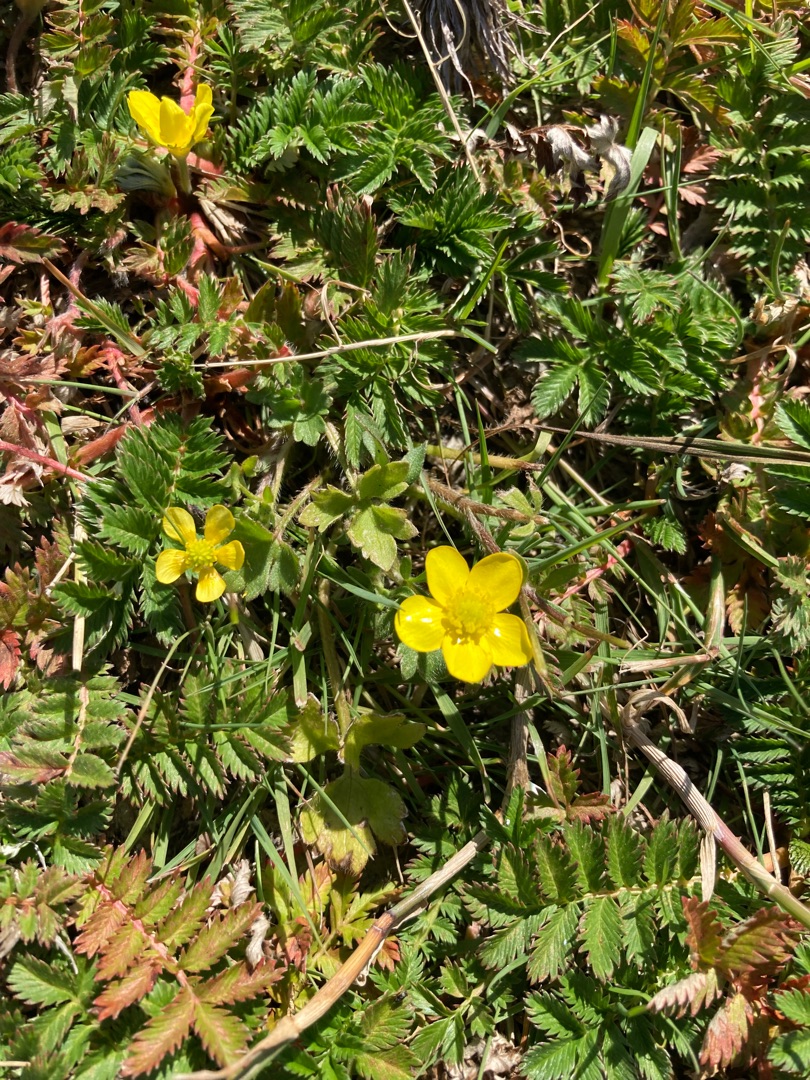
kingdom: Plantae
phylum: Tracheophyta
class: Magnoliopsida
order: Rosales
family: Rosaceae
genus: Argentina
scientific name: Argentina anserina
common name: Gåsepotentil
